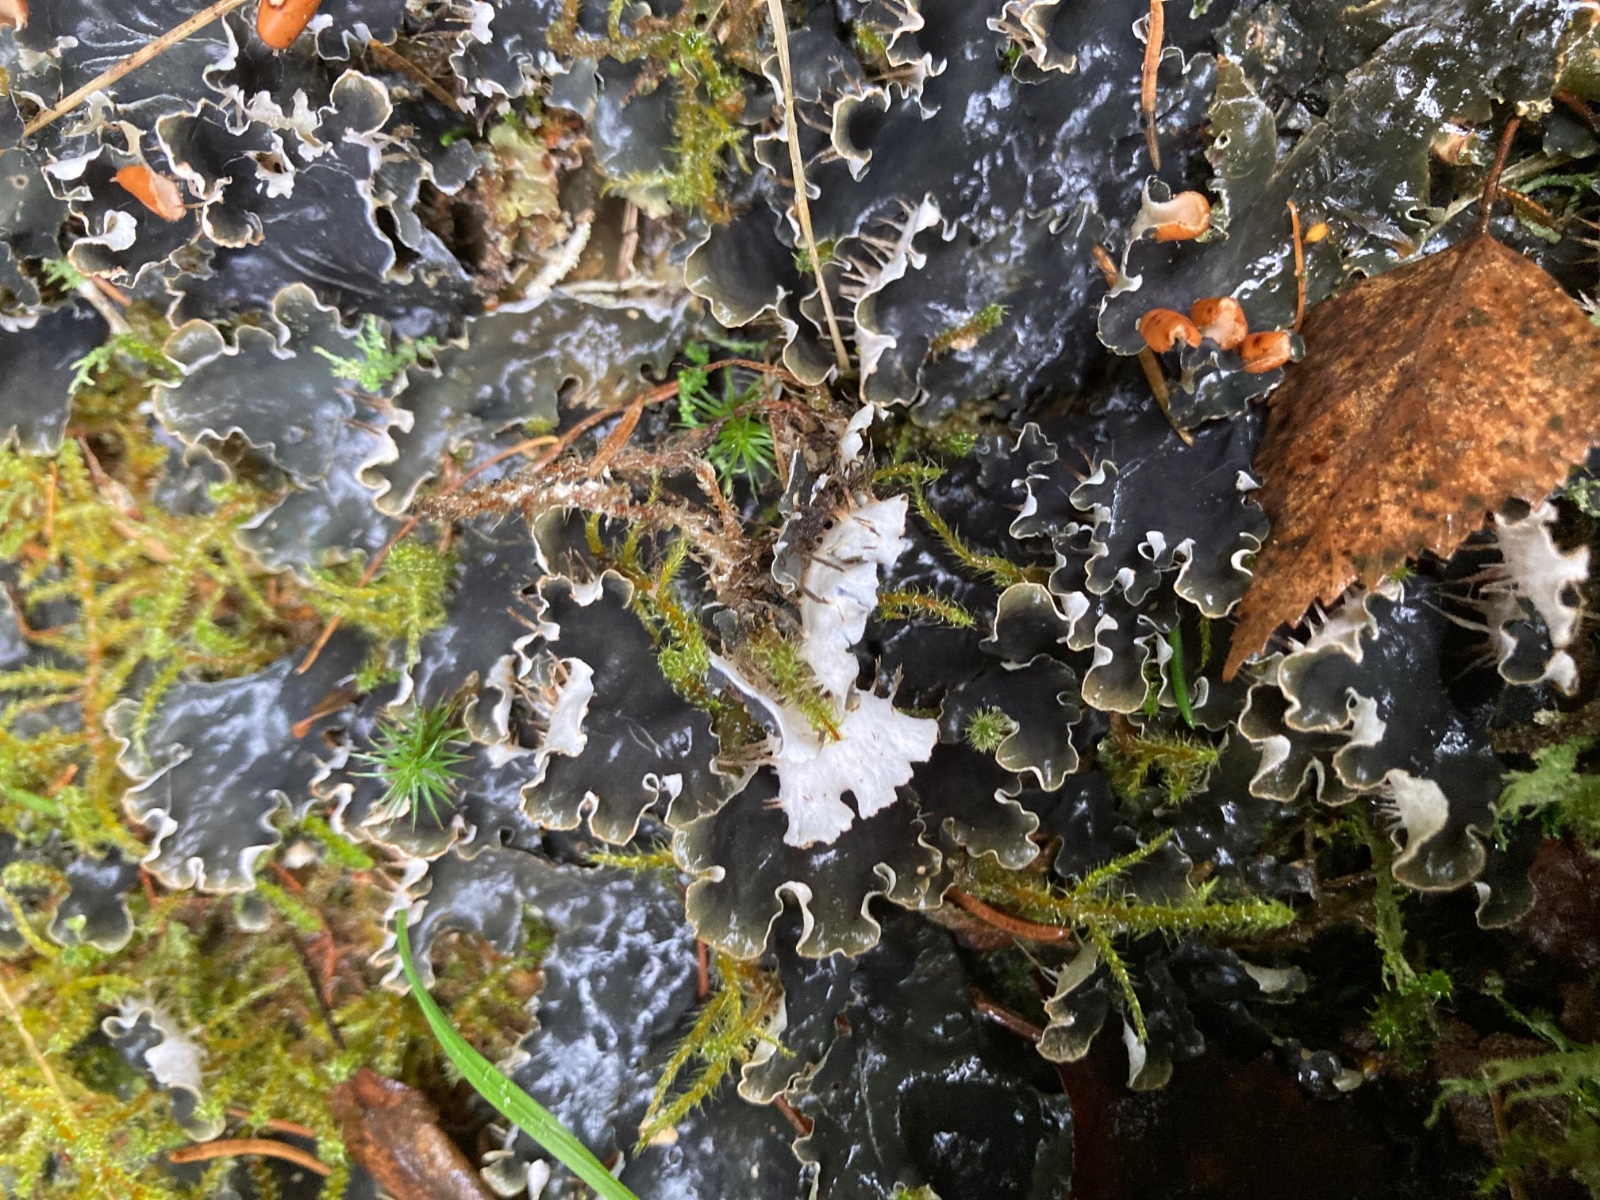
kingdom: Fungi
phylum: Ascomycota
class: Lecanoromycetes
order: Peltigerales
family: Peltigeraceae
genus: Peltigera
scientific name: Peltigera hymenina
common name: hinde-skjoldlav
